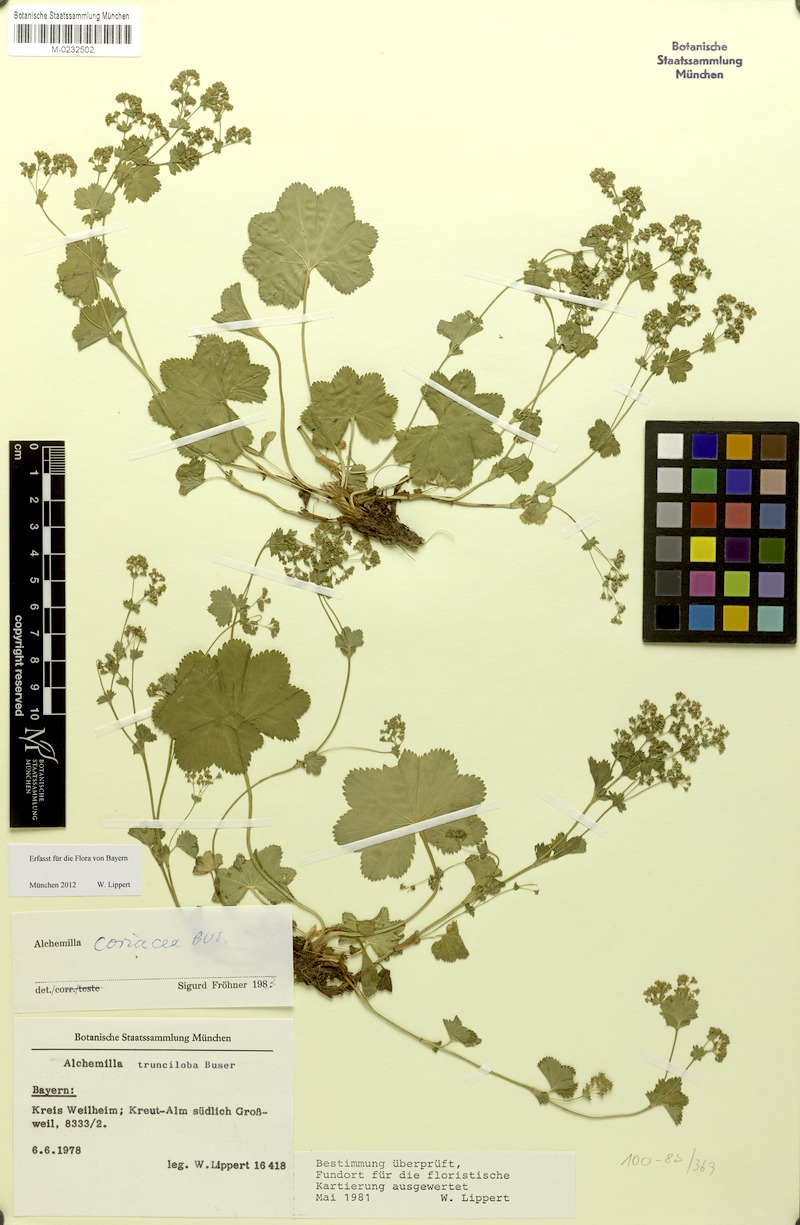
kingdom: Plantae
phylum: Tracheophyta
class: Magnoliopsida
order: Rosales
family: Rosaceae
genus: Alchemilla
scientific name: Alchemilla coriacea
